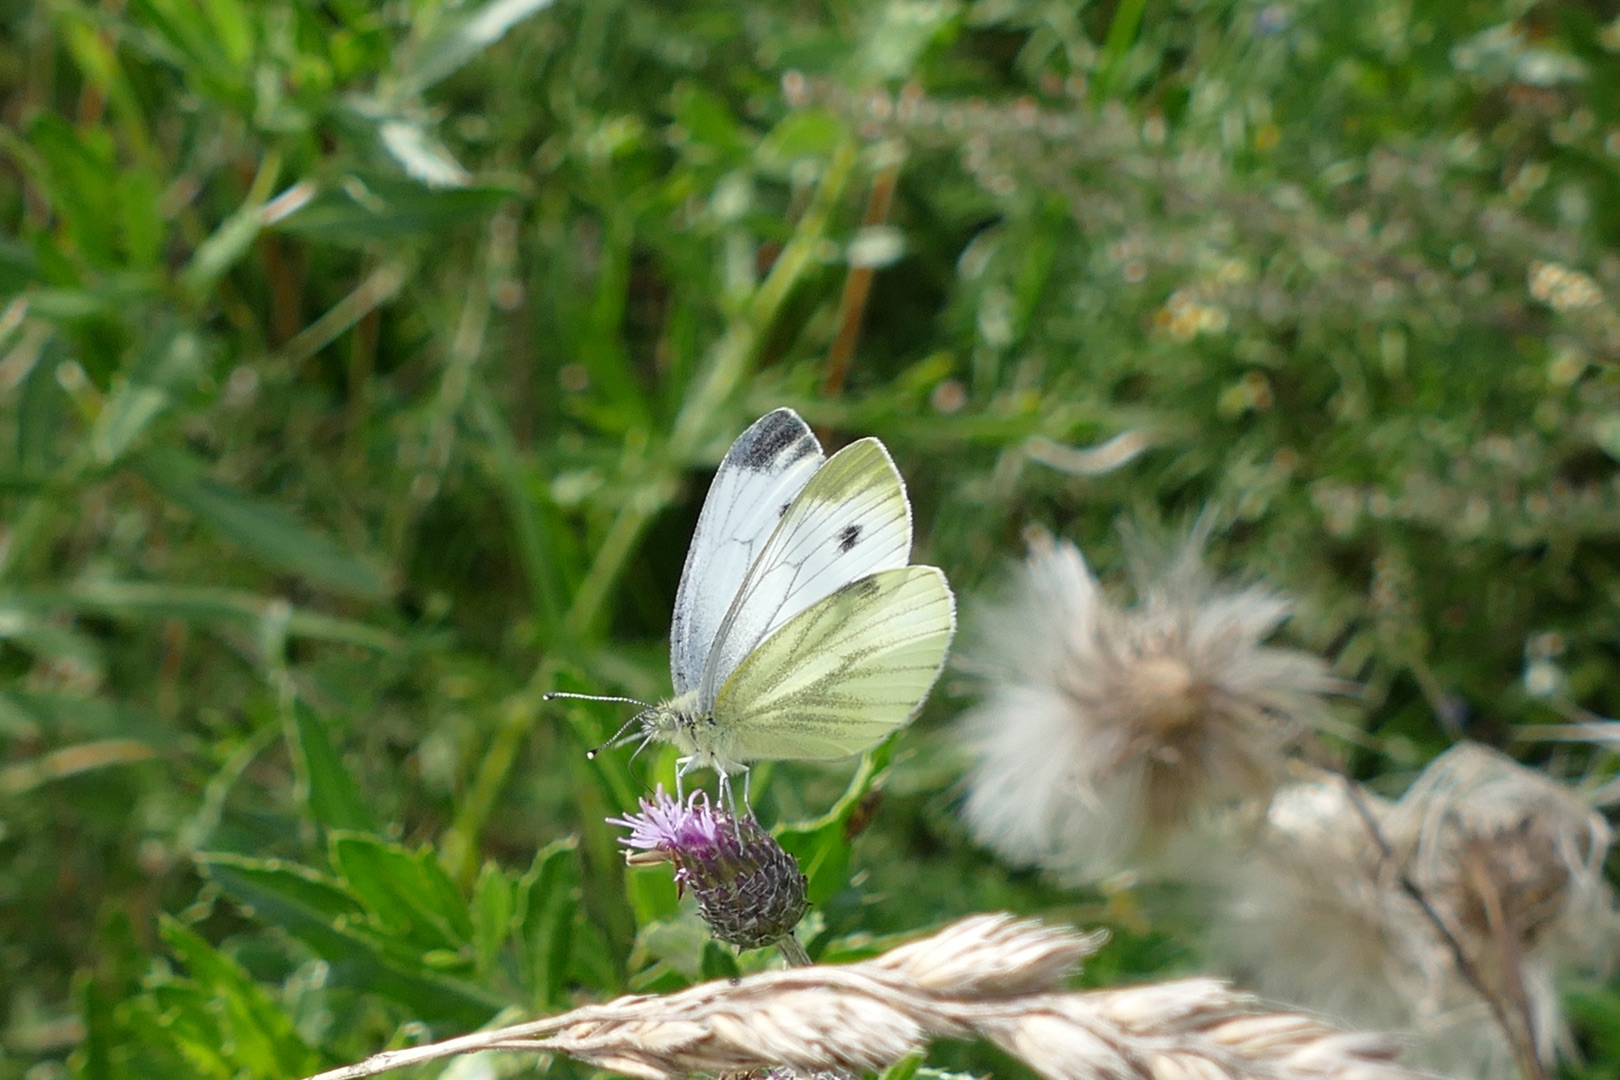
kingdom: Animalia
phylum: Arthropoda
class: Insecta
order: Lepidoptera
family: Pieridae
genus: Pieris
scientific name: Pieris napi
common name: Grønåret kålsommerfugl
